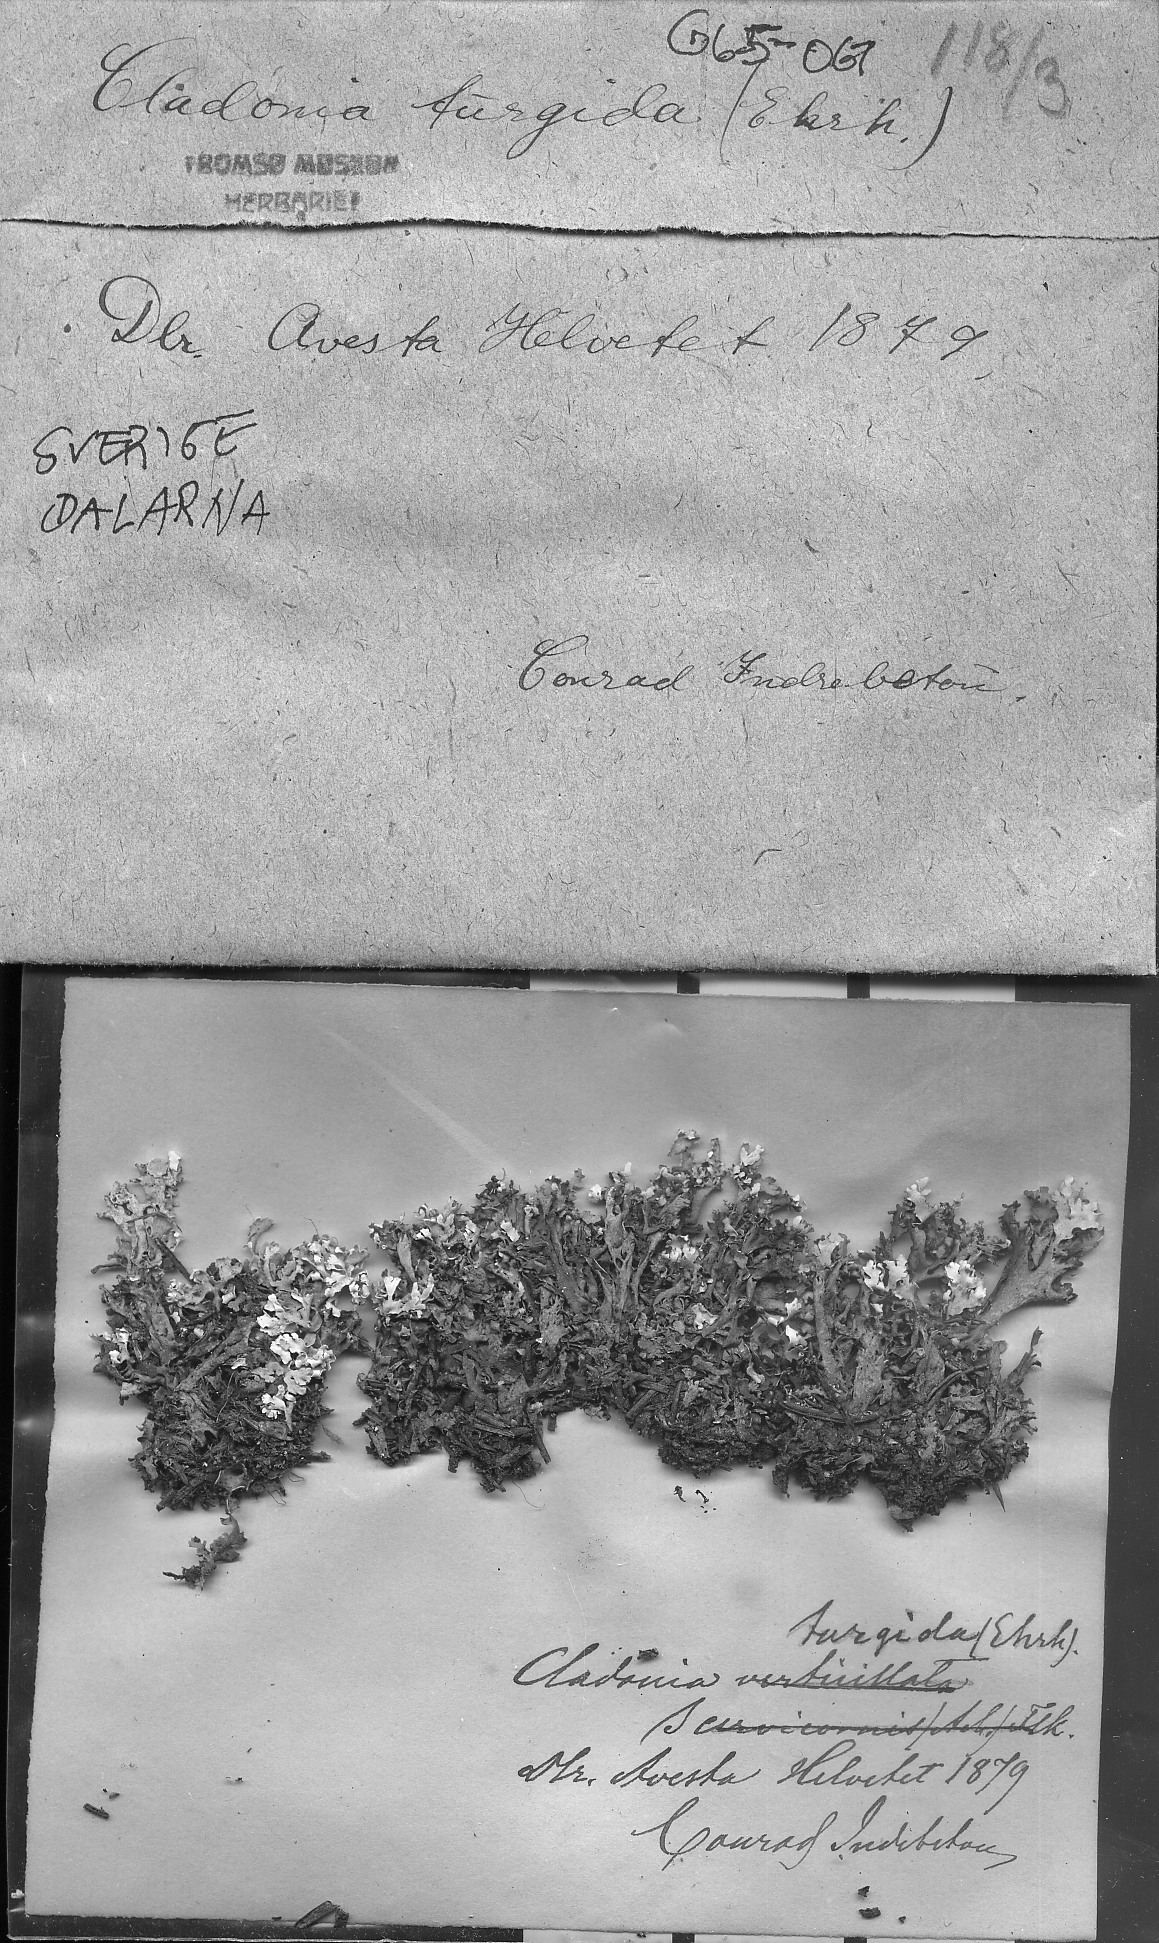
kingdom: Fungi
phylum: Ascomycota
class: Lecanoromycetes
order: Lecanorales
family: Cladoniaceae
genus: Cladonia
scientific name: Cladonia turgida
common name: Crazy scale lichen
